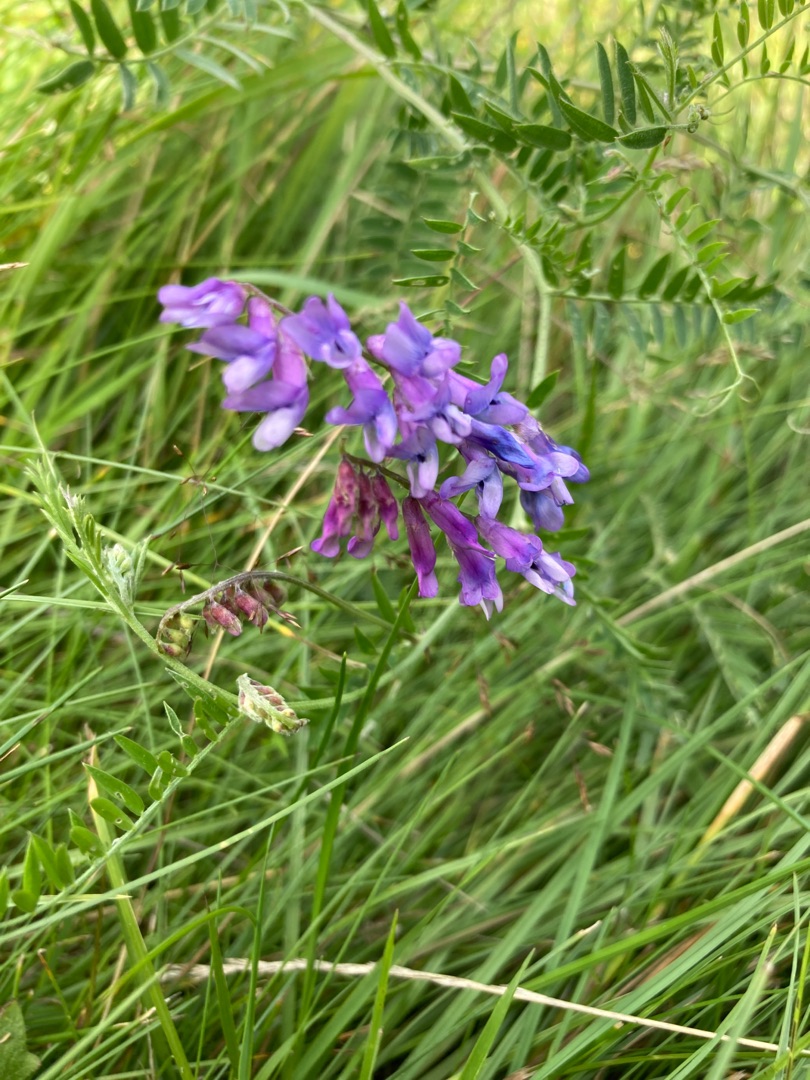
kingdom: Plantae
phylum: Tracheophyta
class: Magnoliopsida
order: Fabales
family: Fabaceae
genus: Vicia
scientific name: Vicia cracca
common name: Muse-vikke
